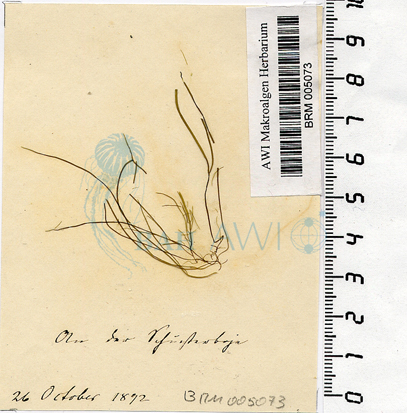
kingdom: Plantae
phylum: Chlorophyta
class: Ulvophyceae
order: Ulvales
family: Ulvaceae
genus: Ulva
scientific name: Ulva clathrata
